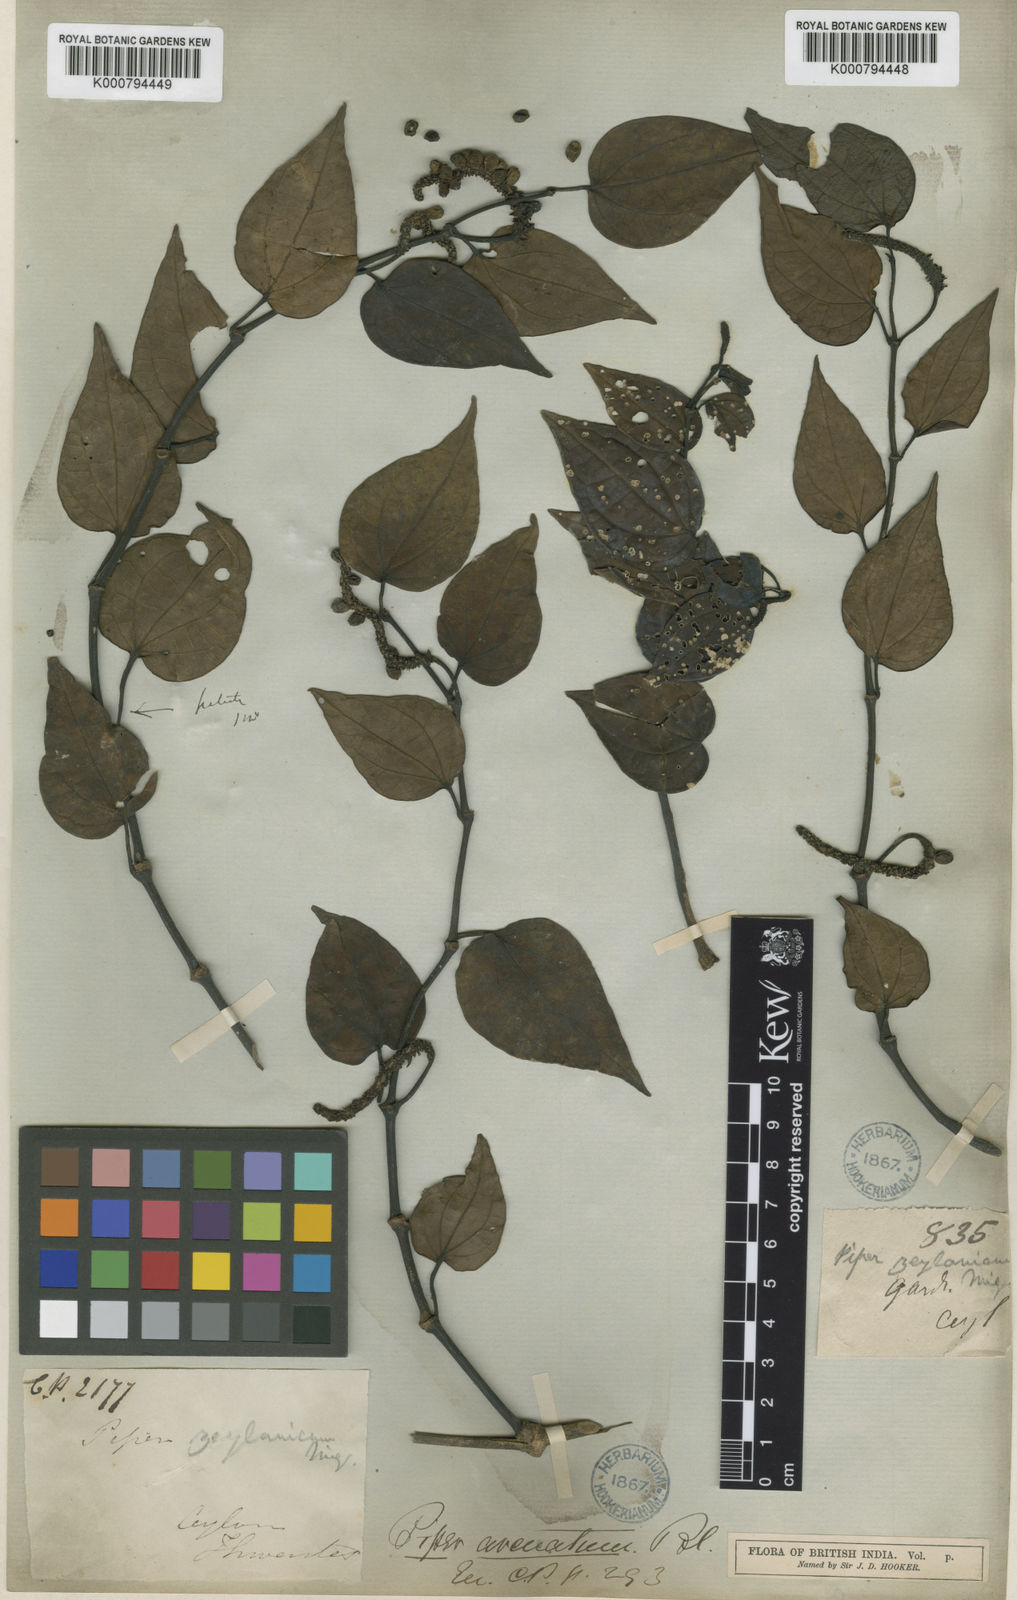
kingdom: Plantae
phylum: Tracheophyta
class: Magnoliopsida
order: Piperales
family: Piperaceae
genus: Piper
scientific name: Piper zeylanicum
